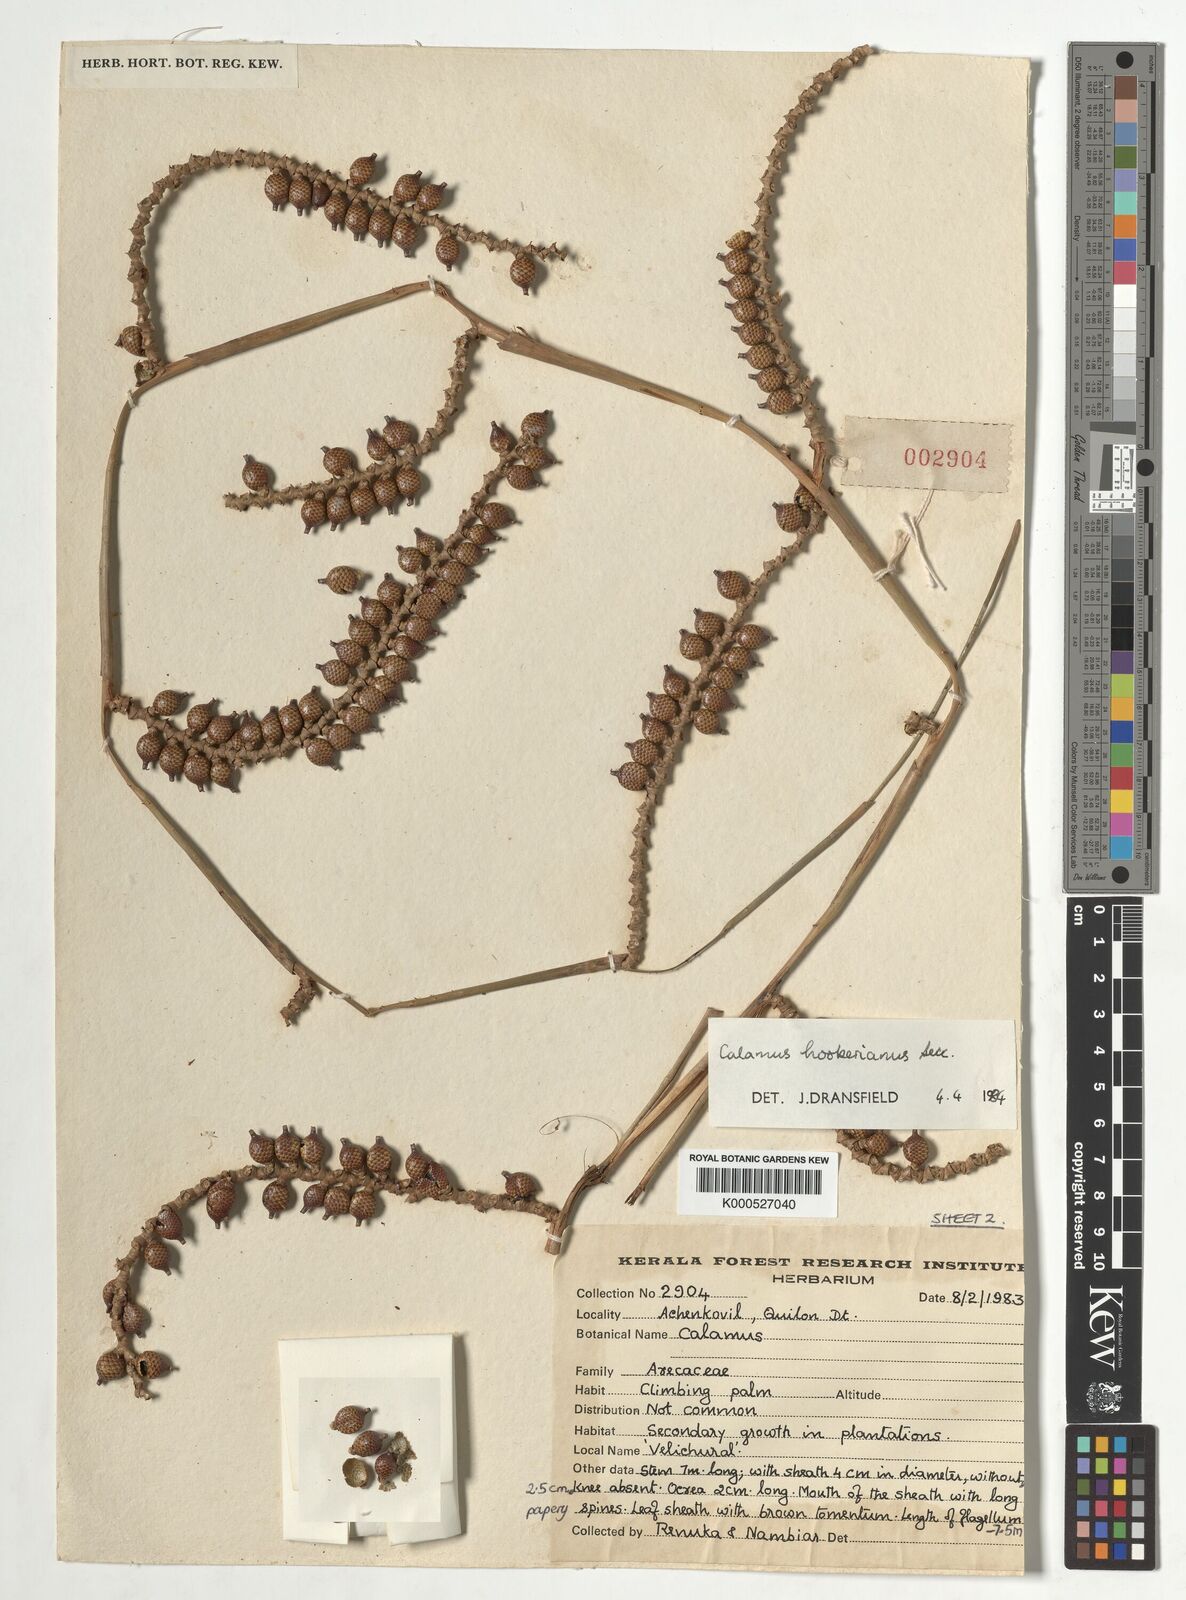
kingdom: Plantae
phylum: Tracheophyta
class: Liliopsida
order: Arecales
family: Arecaceae
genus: Calamus
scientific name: Calamus hookerianus
